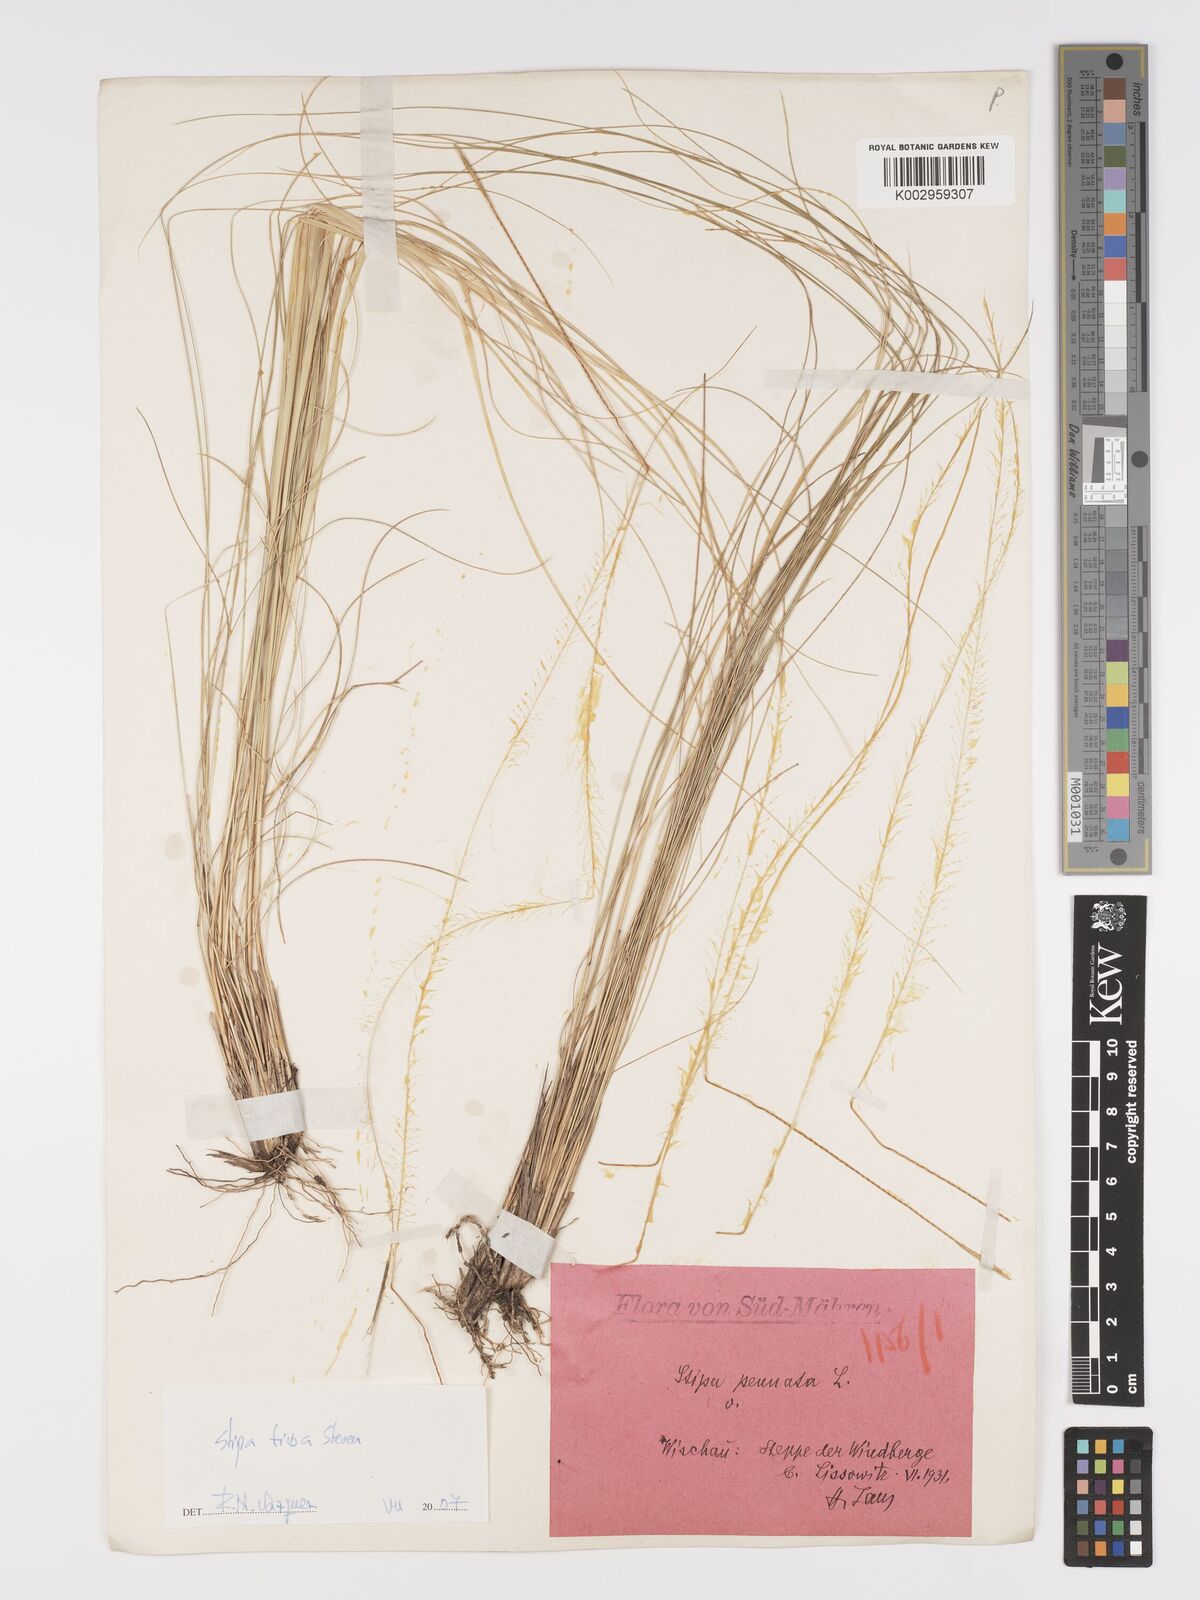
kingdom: Plantae
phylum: Tracheophyta
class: Liliopsida
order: Poales
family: Poaceae
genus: Stipa
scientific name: Stipa tirsa
